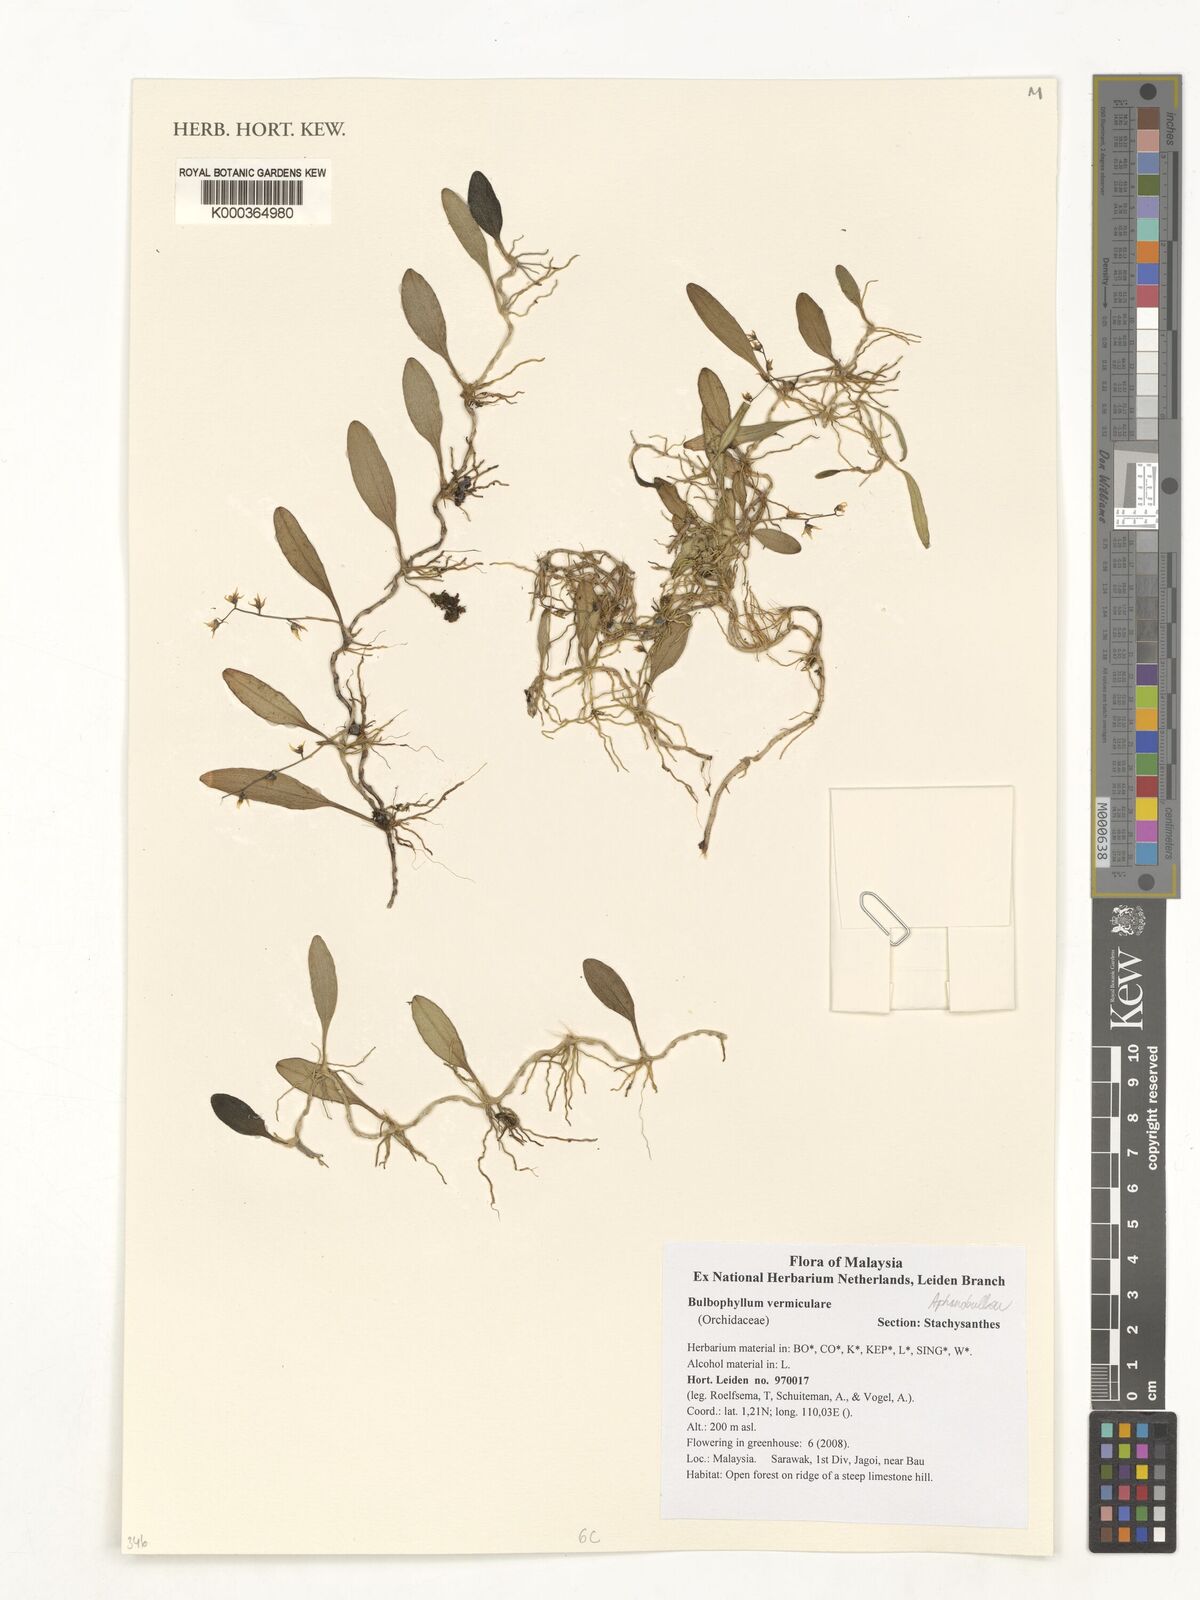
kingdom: Plantae
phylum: Tracheophyta
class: Liliopsida
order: Asparagales
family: Orchidaceae
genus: Bulbophyllum
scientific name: Bulbophyllum vermiculare
